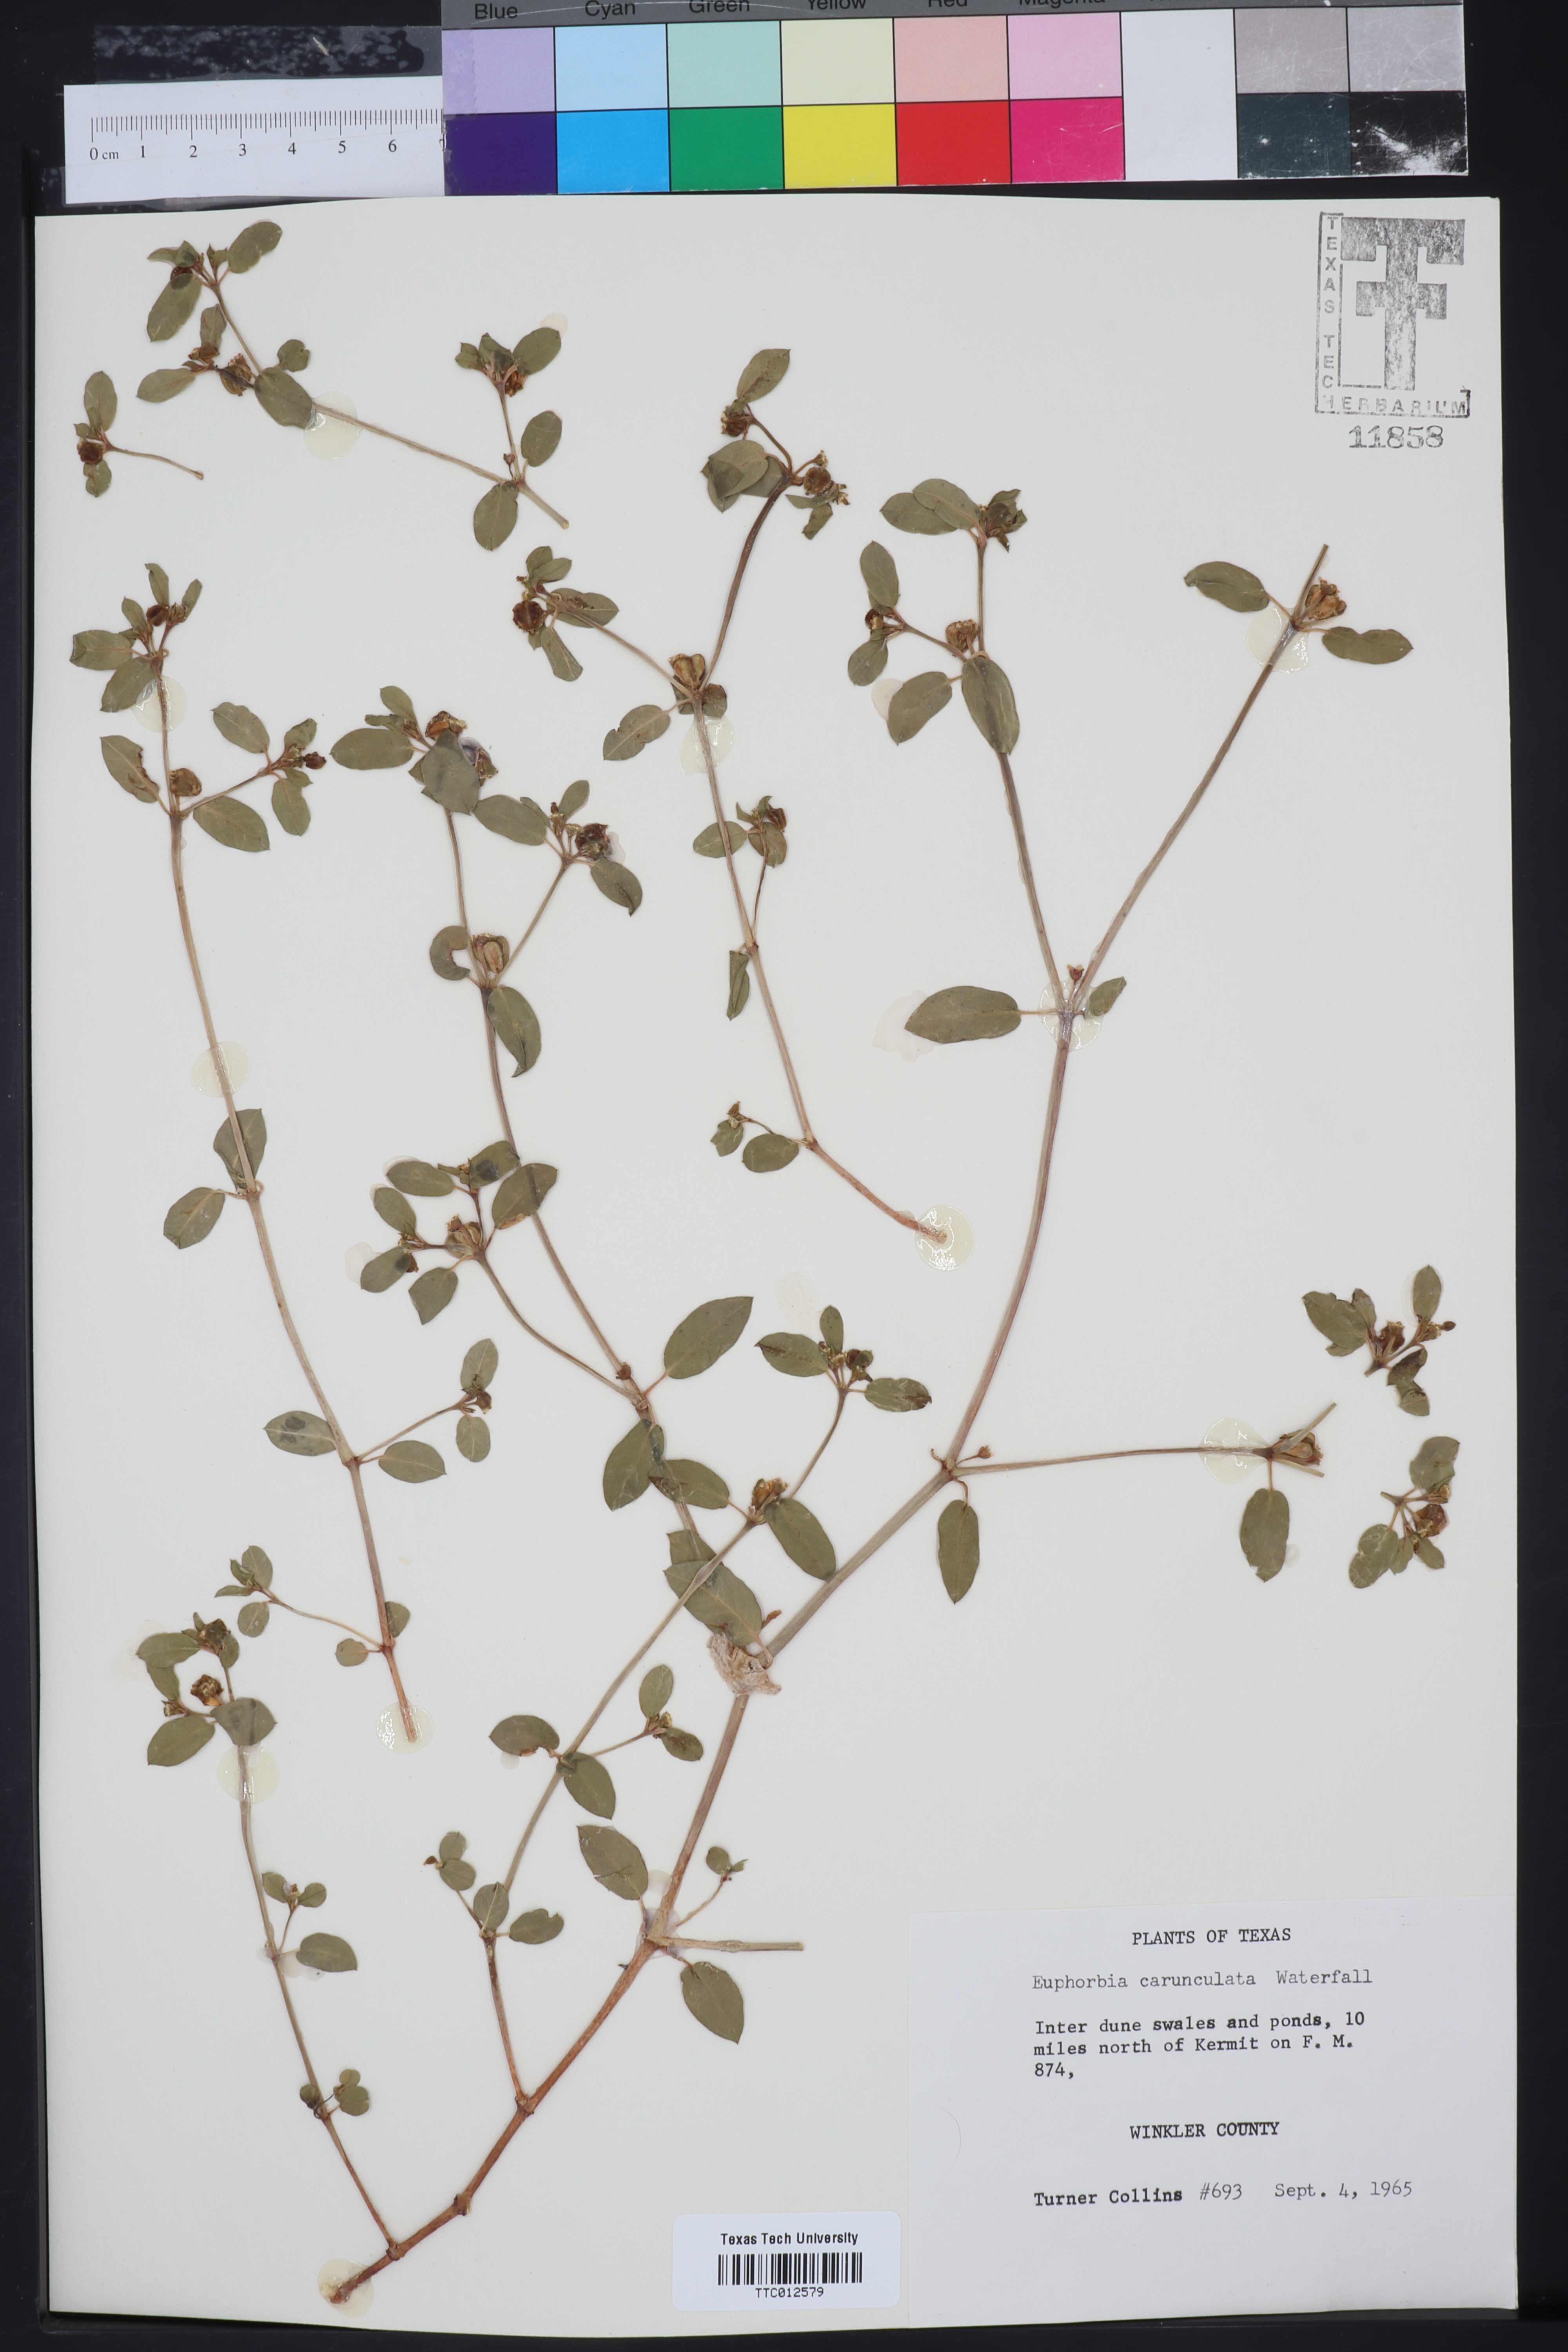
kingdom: Plantae
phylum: Tracheophyta
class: Magnoliopsida
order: Malpighiales
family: Euphorbiaceae
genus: Euphorbia
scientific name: Euphorbia carunculata
